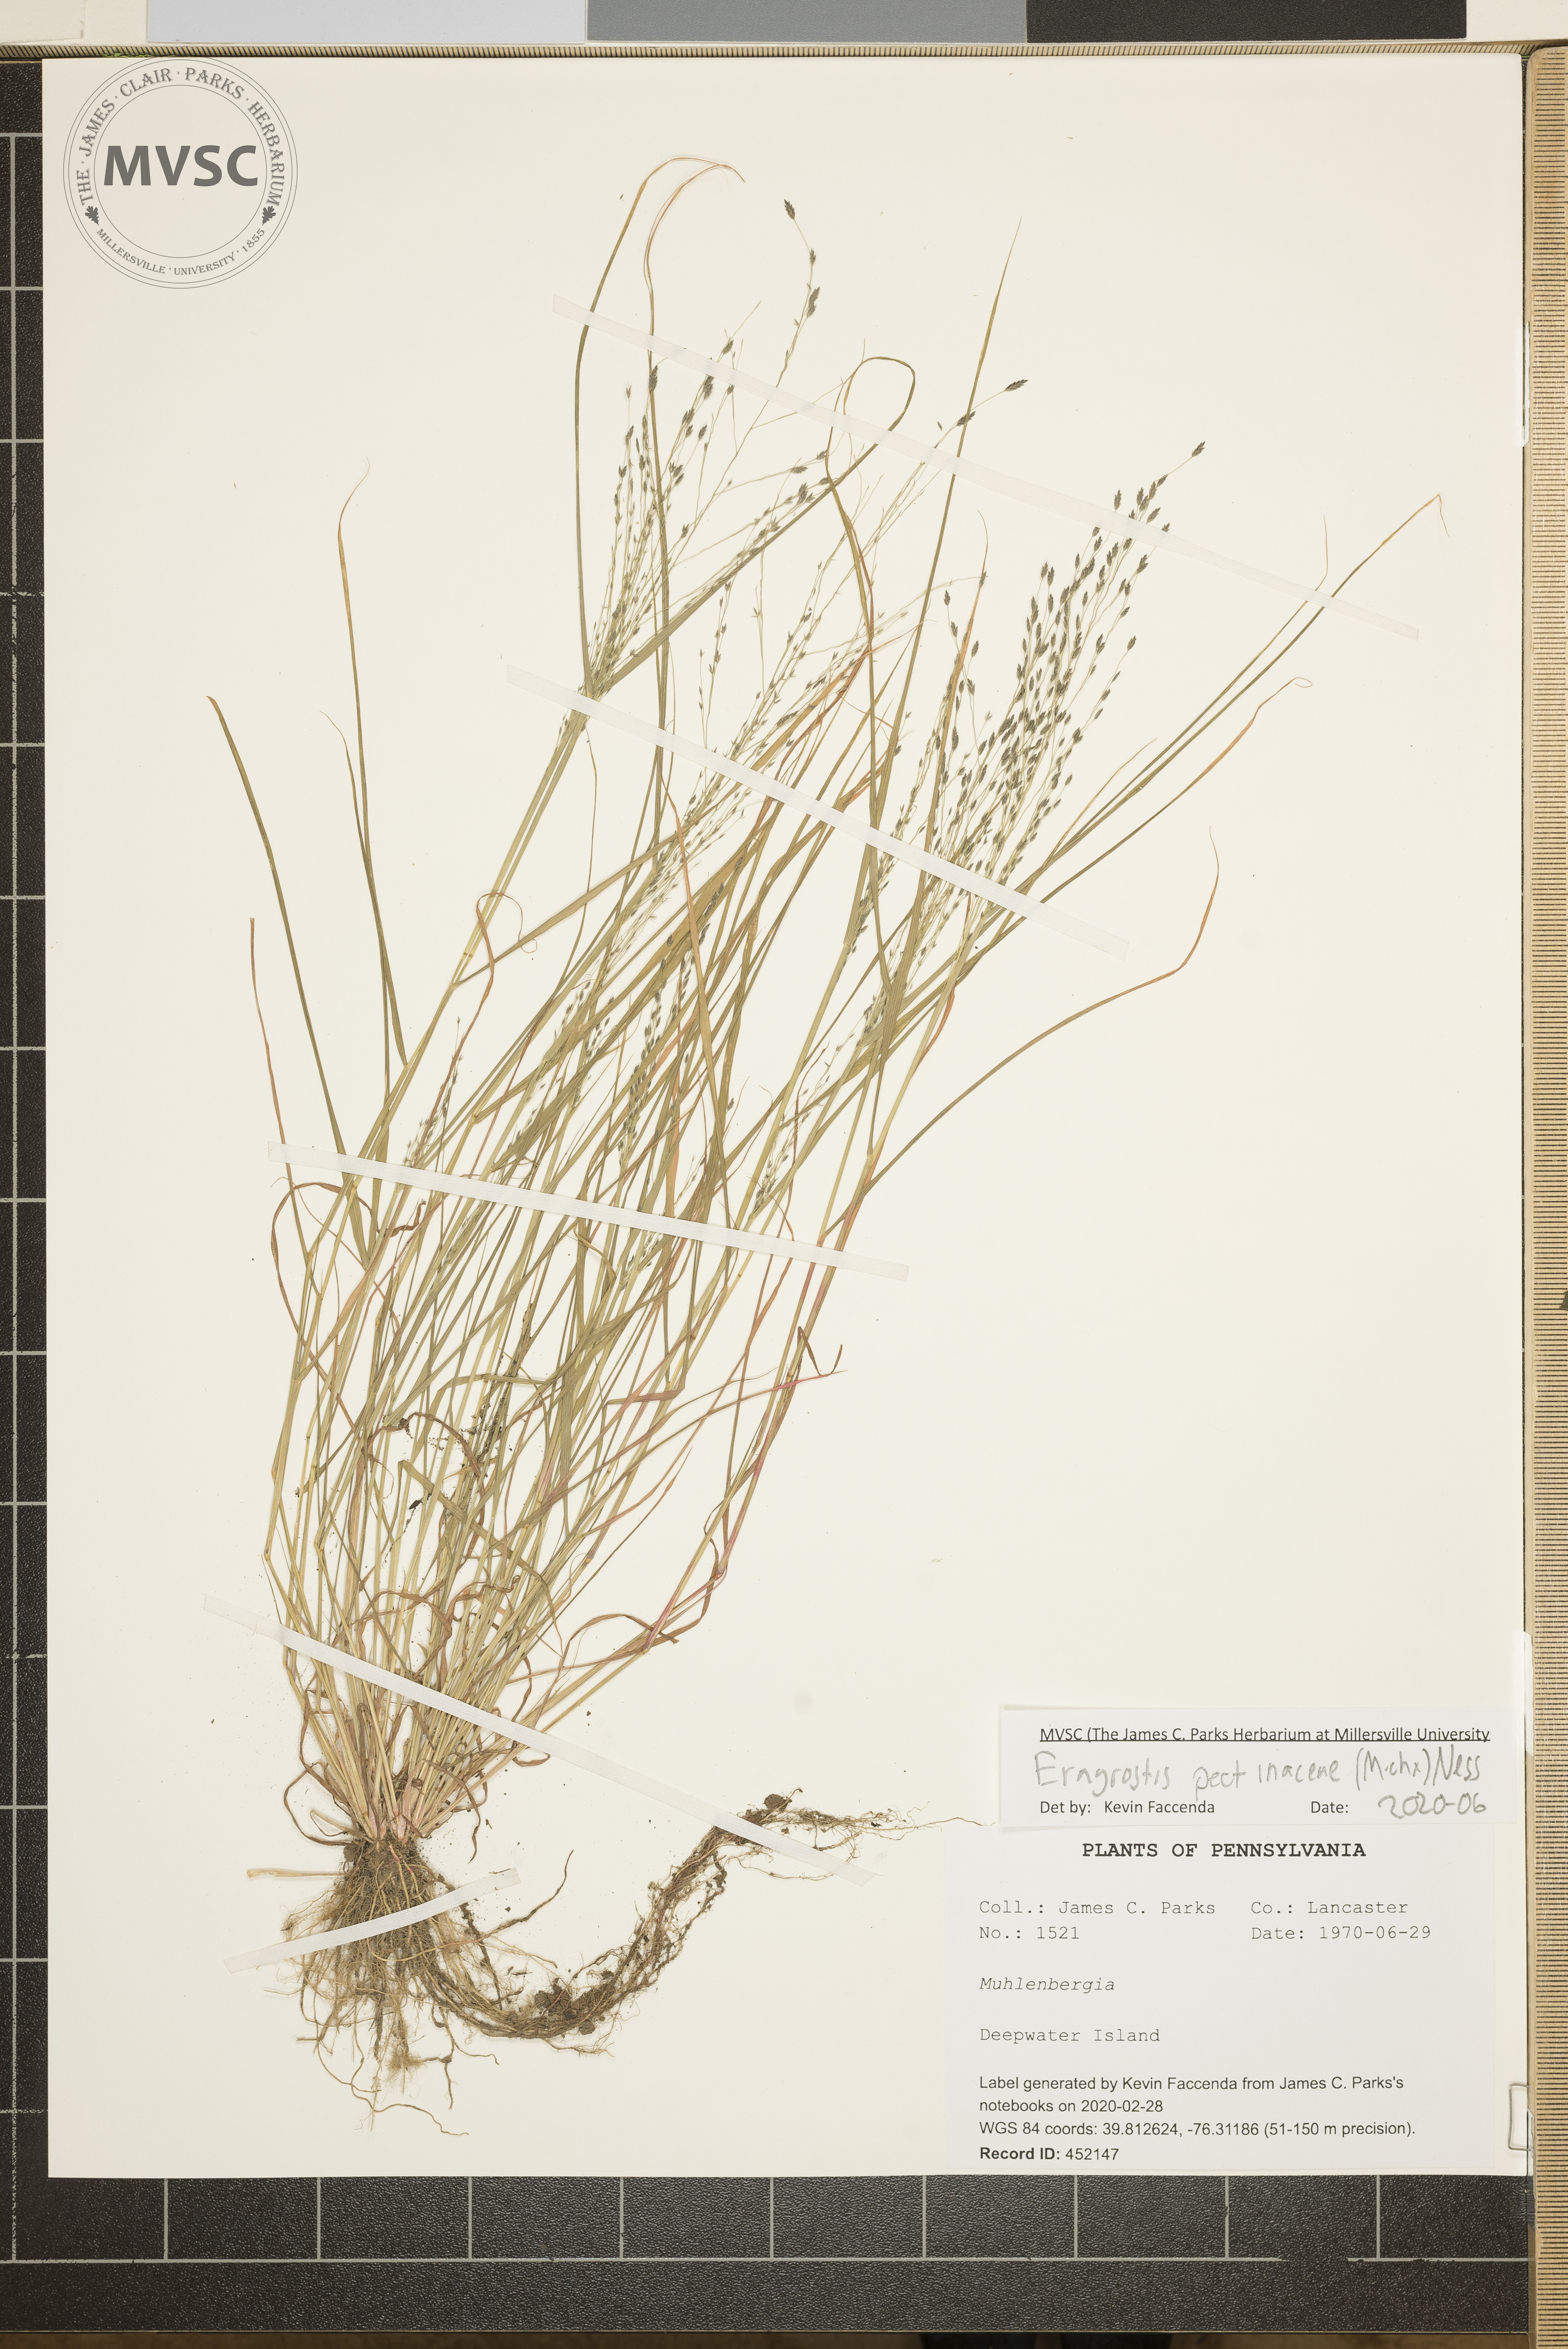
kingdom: Plantae
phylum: Tracheophyta
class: Liliopsida
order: Poales
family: Poaceae
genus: Eragrostis
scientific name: Eragrostis pectinacea
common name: Tufted lovegrass
